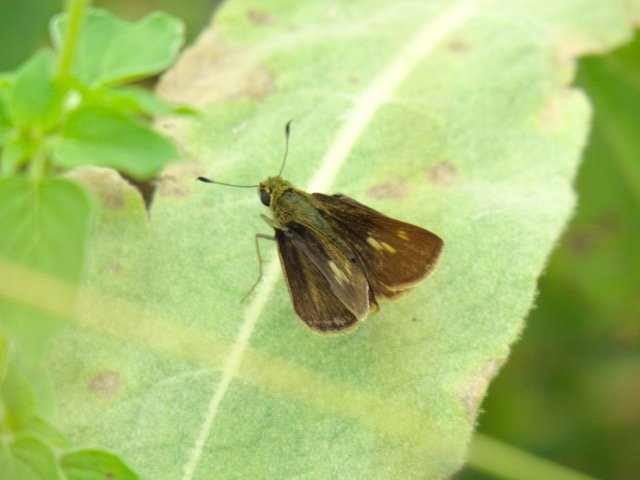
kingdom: Animalia
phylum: Arthropoda
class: Insecta
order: Lepidoptera
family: Hesperiidae
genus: Polites
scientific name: Polites egeremet
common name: Northern Broken-Dash
